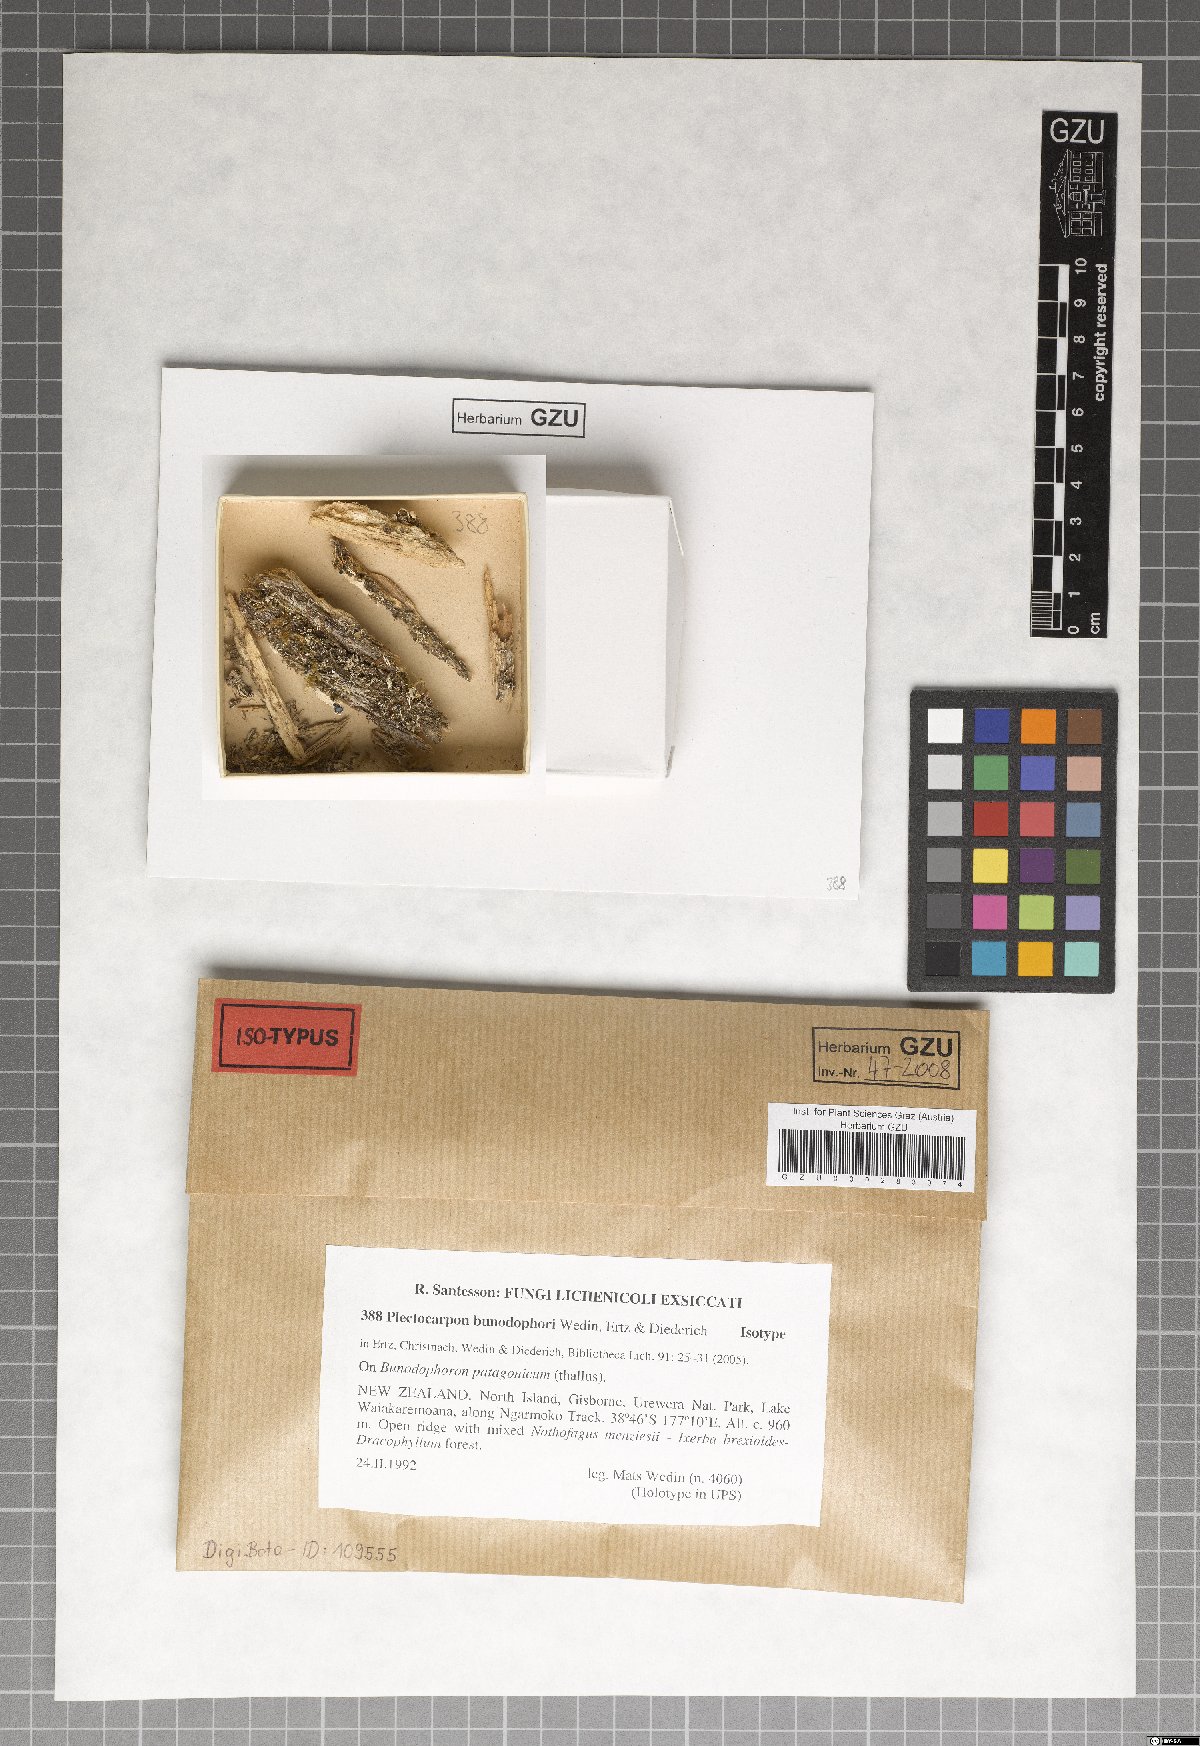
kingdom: Fungi
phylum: Ascomycota
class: Arthoniomycetes
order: Arthoniales
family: Lecanographaceae
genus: Plectocarpon
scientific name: Plectocarpon bunodophori
